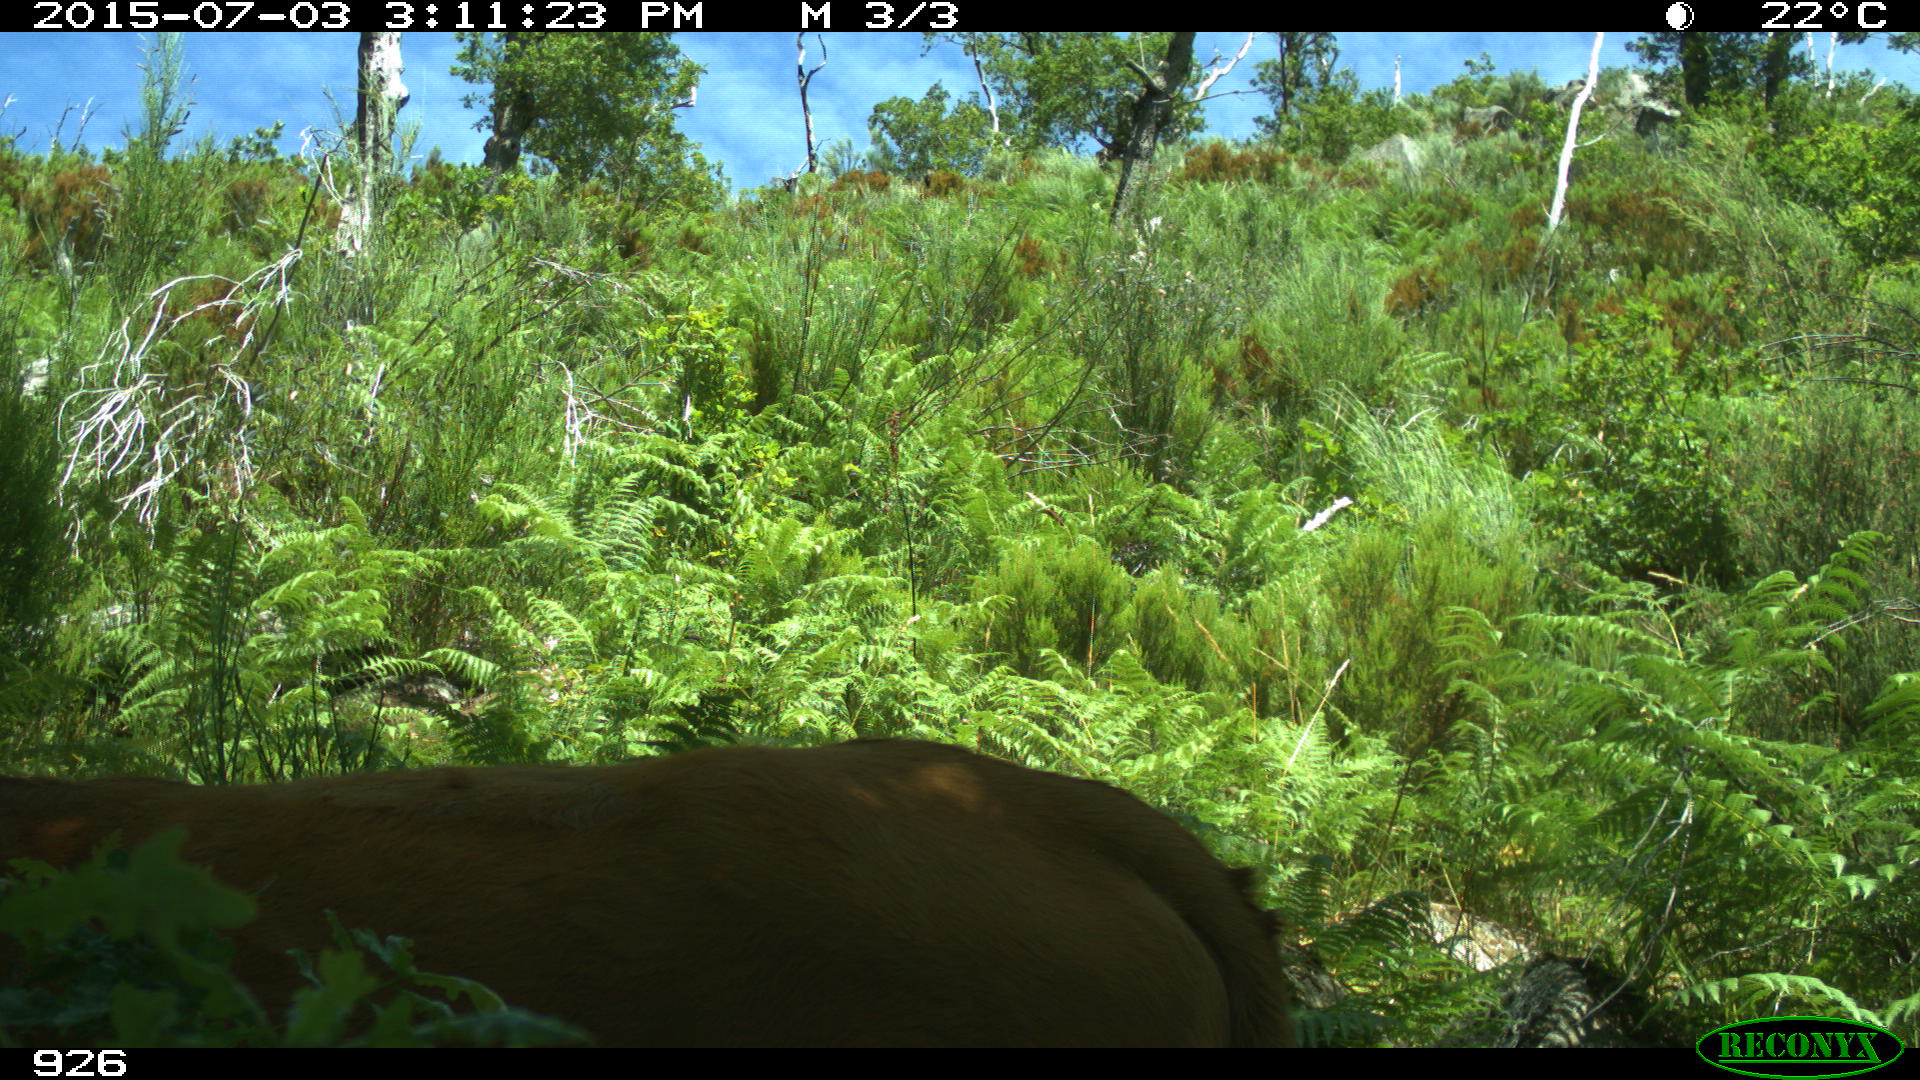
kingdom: Animalia
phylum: Chordata
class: Mammalia
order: Artiodactyla
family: Bovidae
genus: Bos
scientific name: Bos taurus
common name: Domesticated cattle
